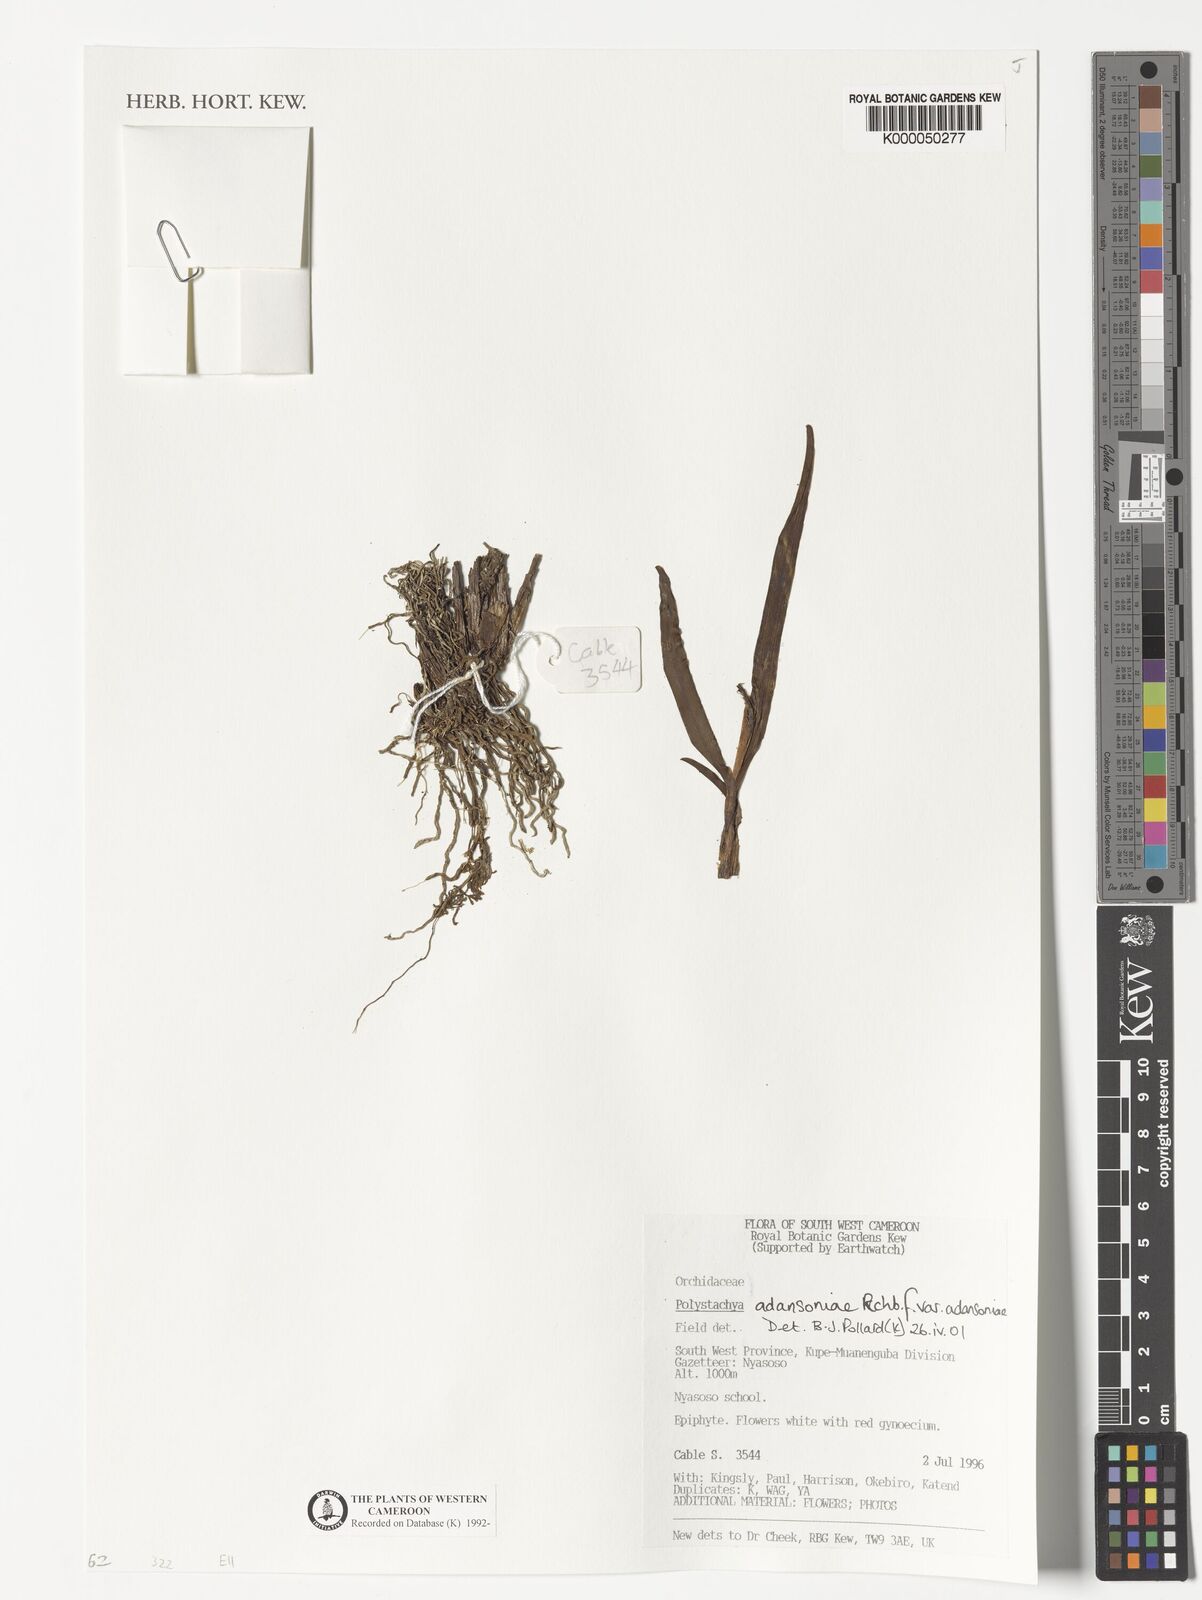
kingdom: Plantae
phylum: Tracheophyta
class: Liliopsida
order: Asparagales
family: Orchidaceae
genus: Polystachya
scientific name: Polystachya adansoniae
